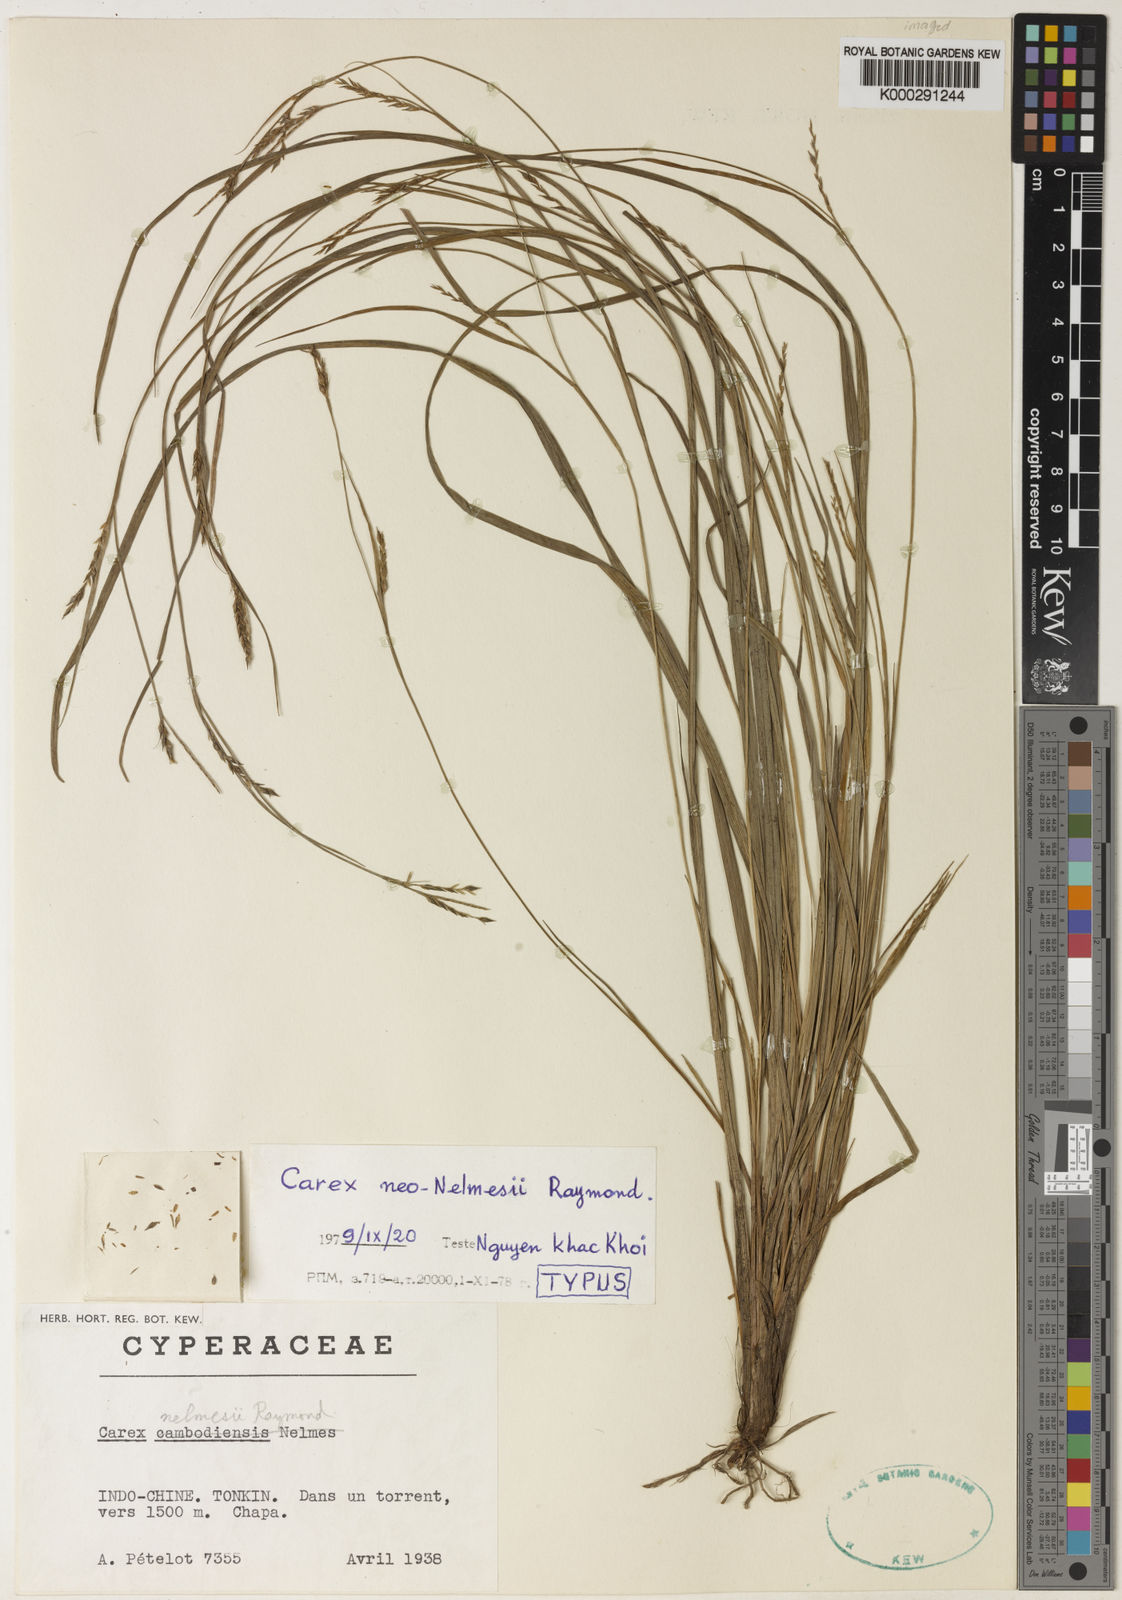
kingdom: Plantae
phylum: Tracheophyta
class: Liliopsida
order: Poales
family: Cyperaceae
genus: Carex
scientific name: Carex
